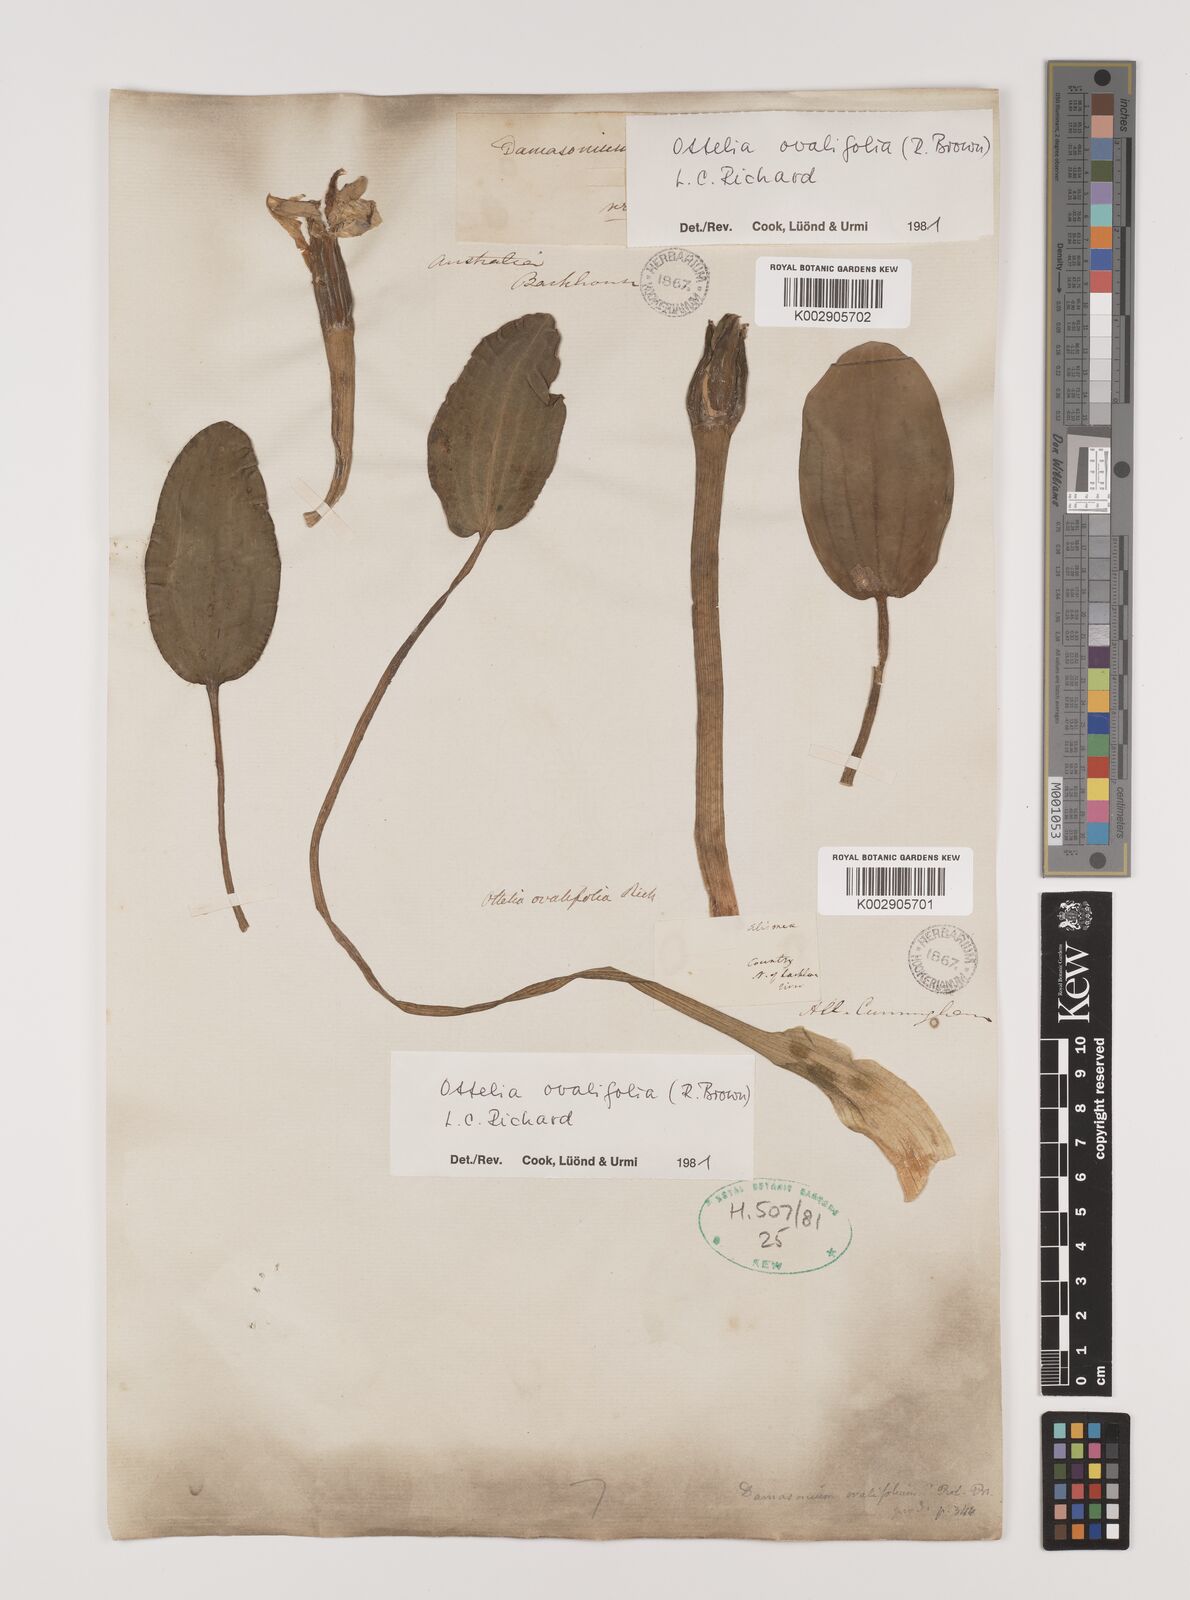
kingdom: Plantae
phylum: Tracheophyta
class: Liliopsida
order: Alismatales
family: Hydrocharitaceae
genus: Ottelia
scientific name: Ottelia ovalifolia
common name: Swamp-lily
